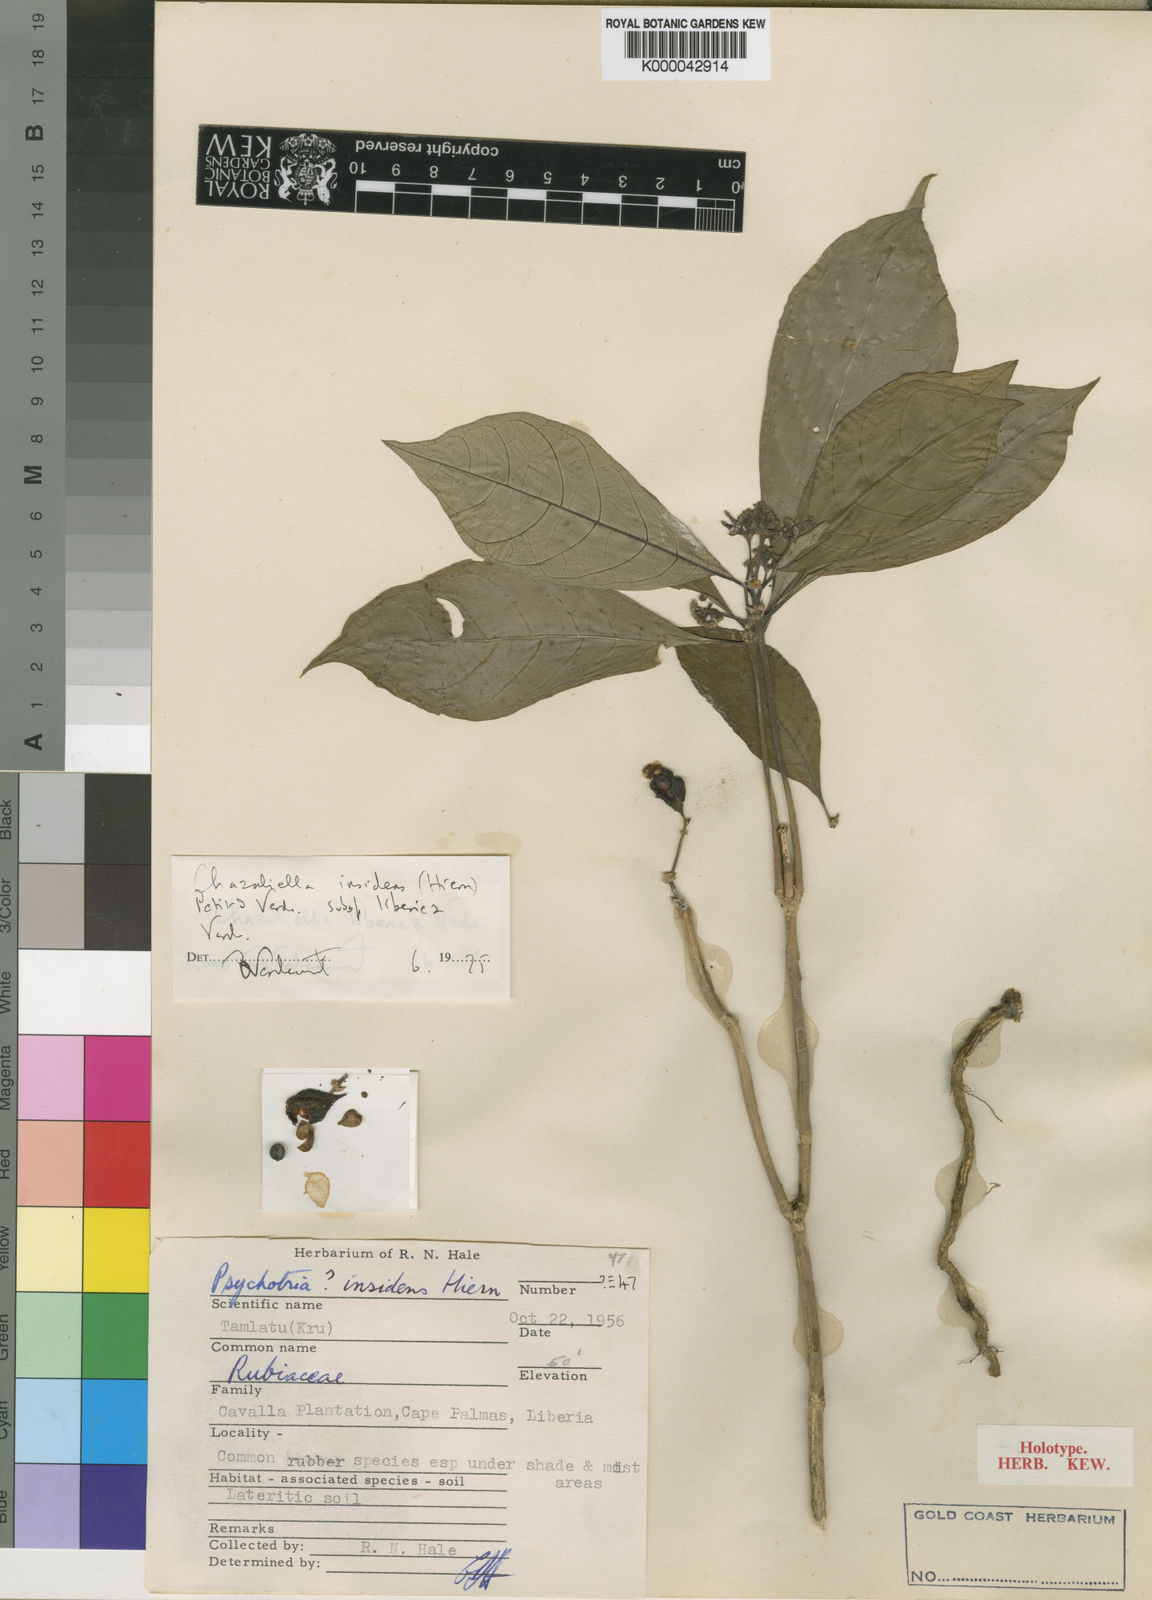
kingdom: Plantae
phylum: Tracheophyta
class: Magnoliopsida
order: Gentianales
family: Rubiaceae
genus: Eumachia
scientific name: Eumachia insidens
